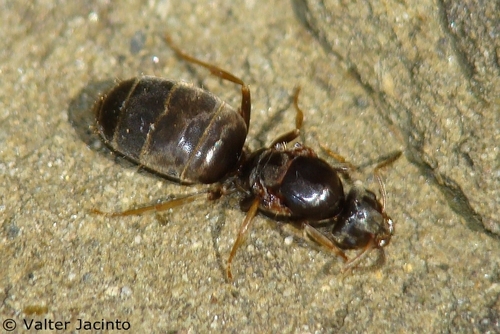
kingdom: Animalia
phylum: Arthropoda
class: Insecta
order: Hymenoptera
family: Formicidae
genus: Lasius
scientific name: Lasius grandis
